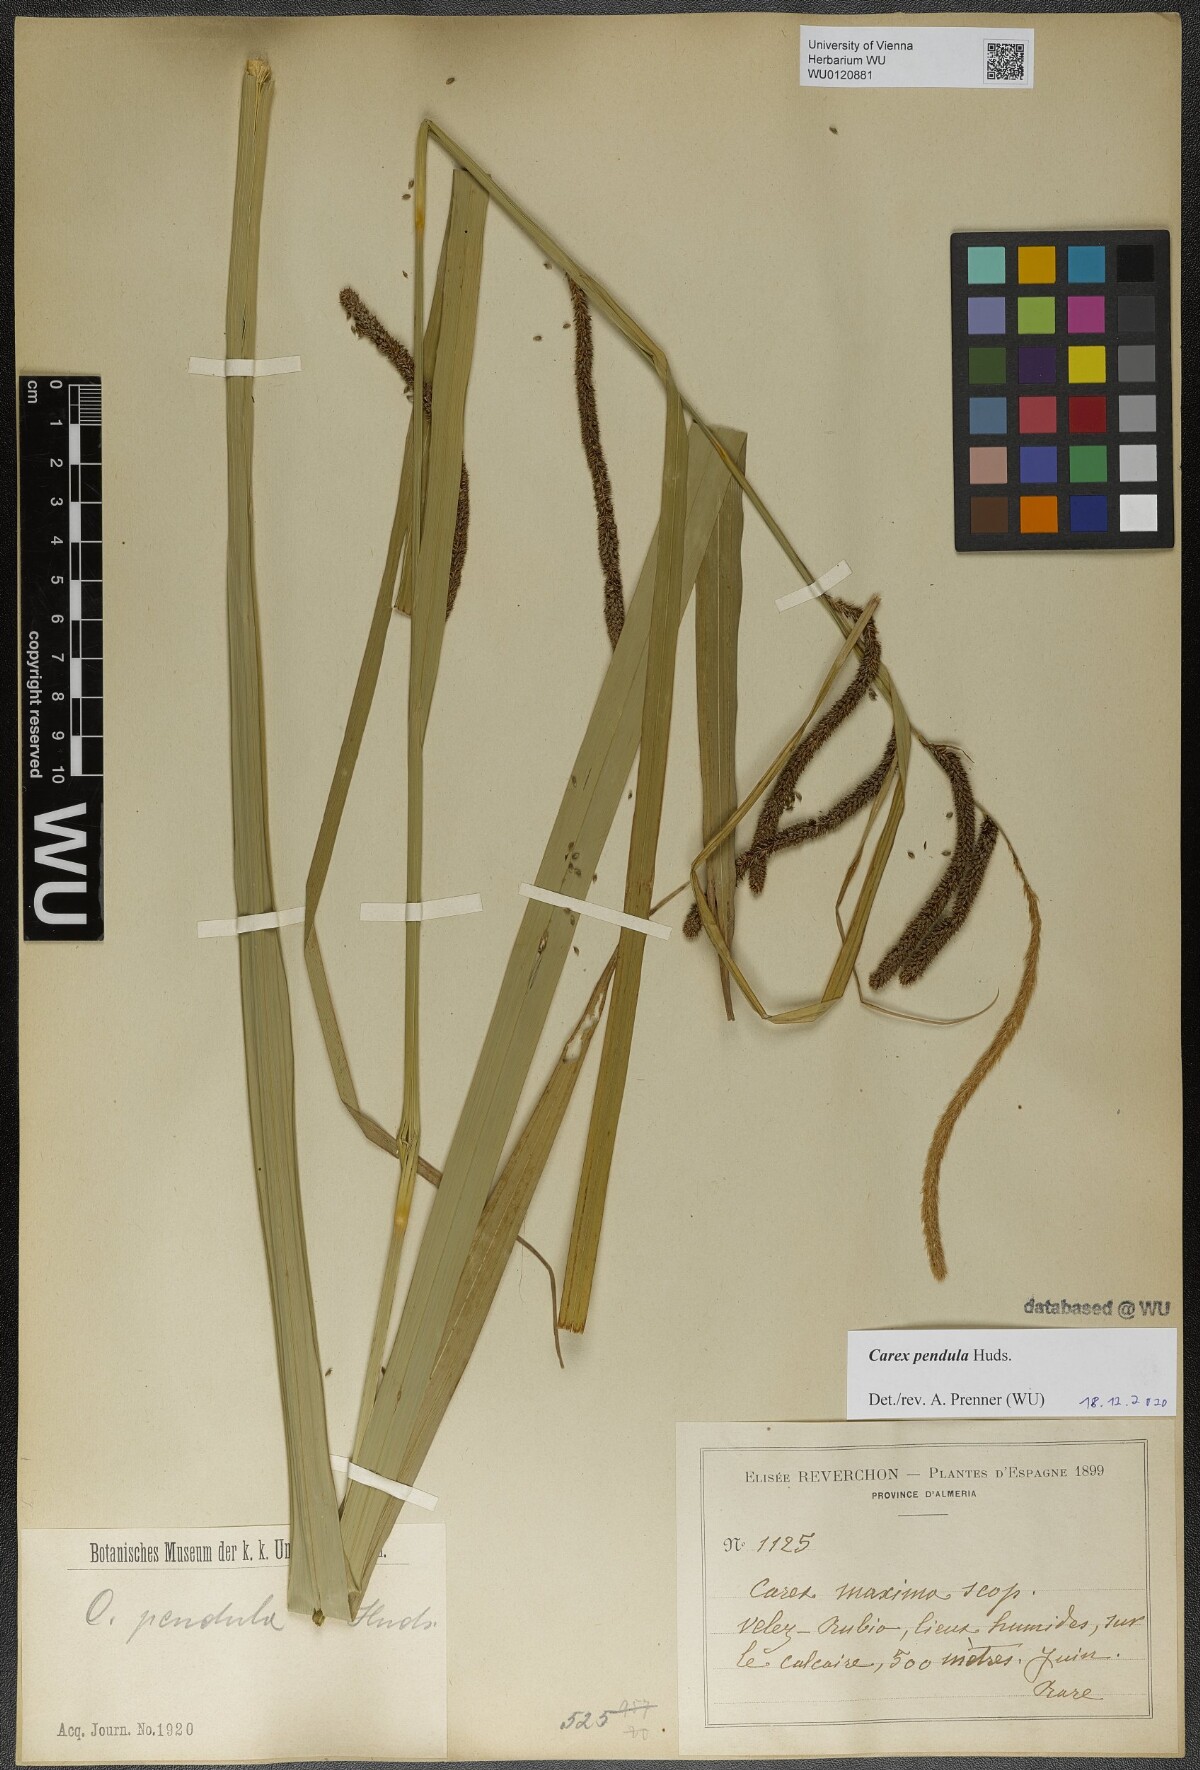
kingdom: Plantae
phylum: Tracheophyta
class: Liliopsida
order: Poales
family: Cyperaceae
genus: Carex
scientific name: Carex pendula
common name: Pendulous sedge
